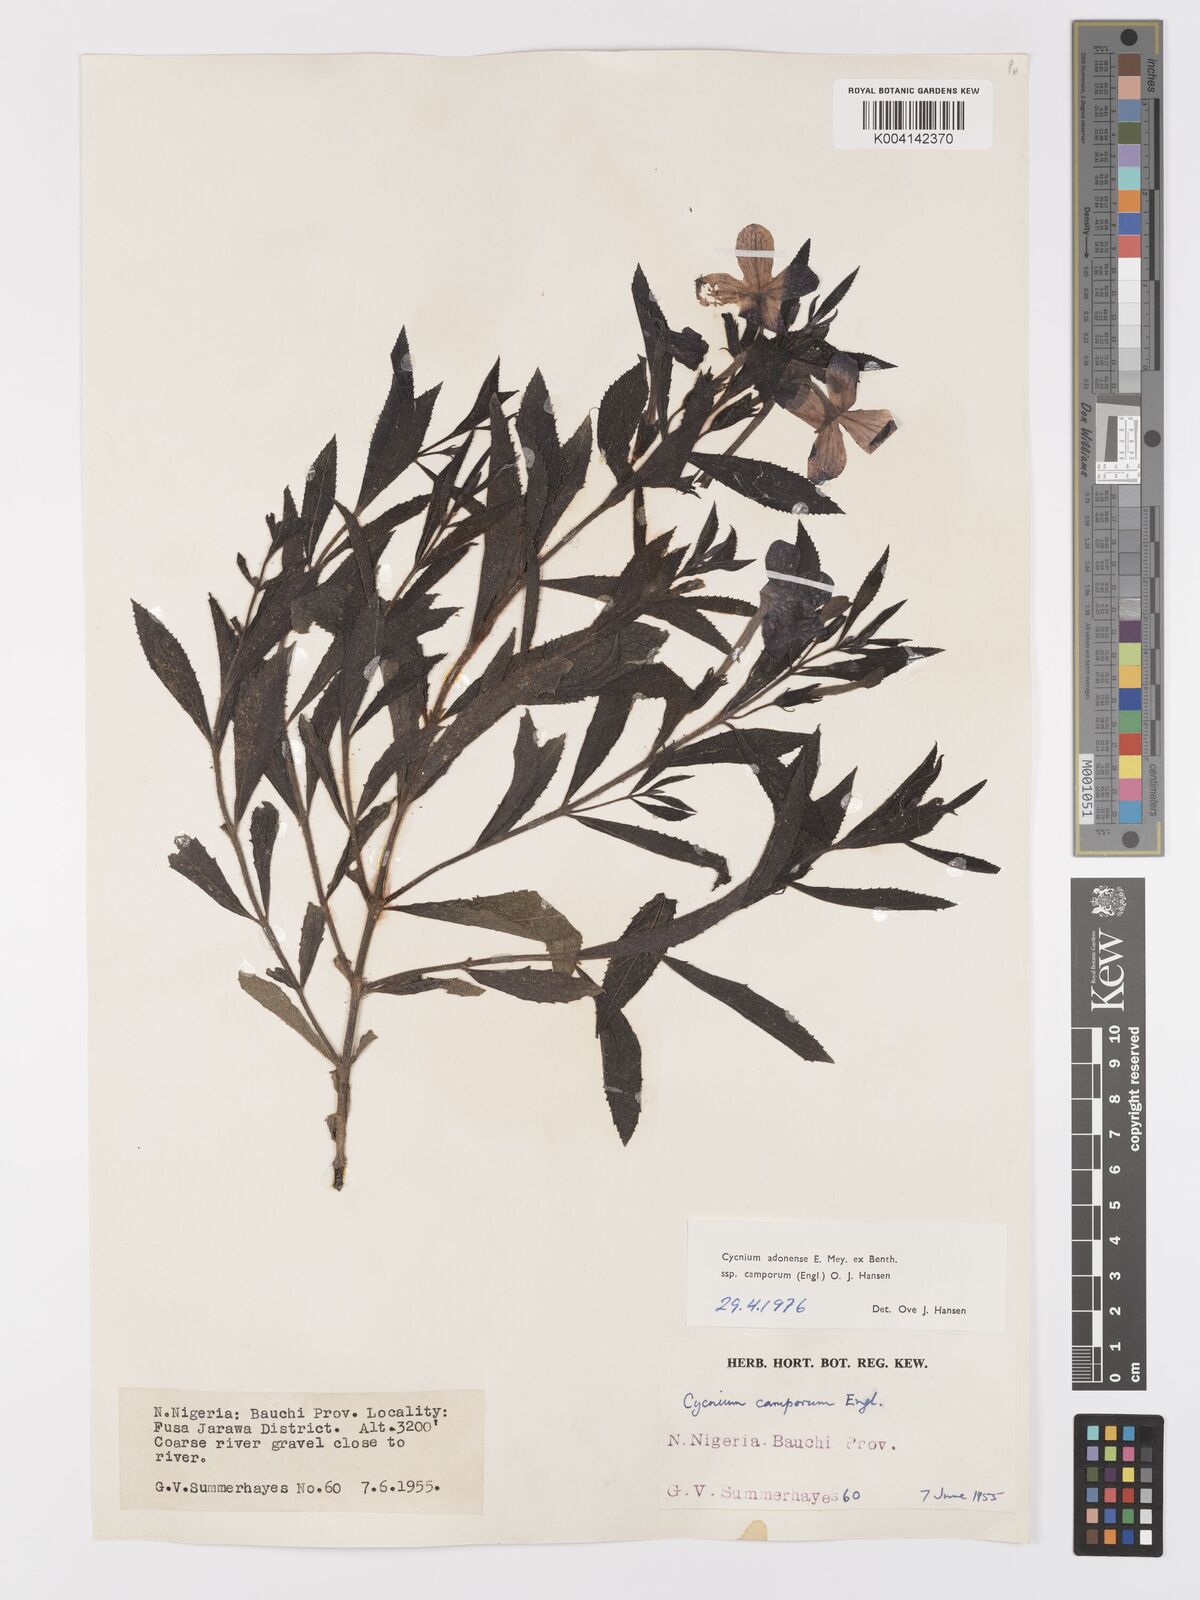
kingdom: Plantae
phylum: Tracheophyta
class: Magnoliopsida
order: Lamiales
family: Orobanchaceae
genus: Cycnium
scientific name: Cycnium adoense
